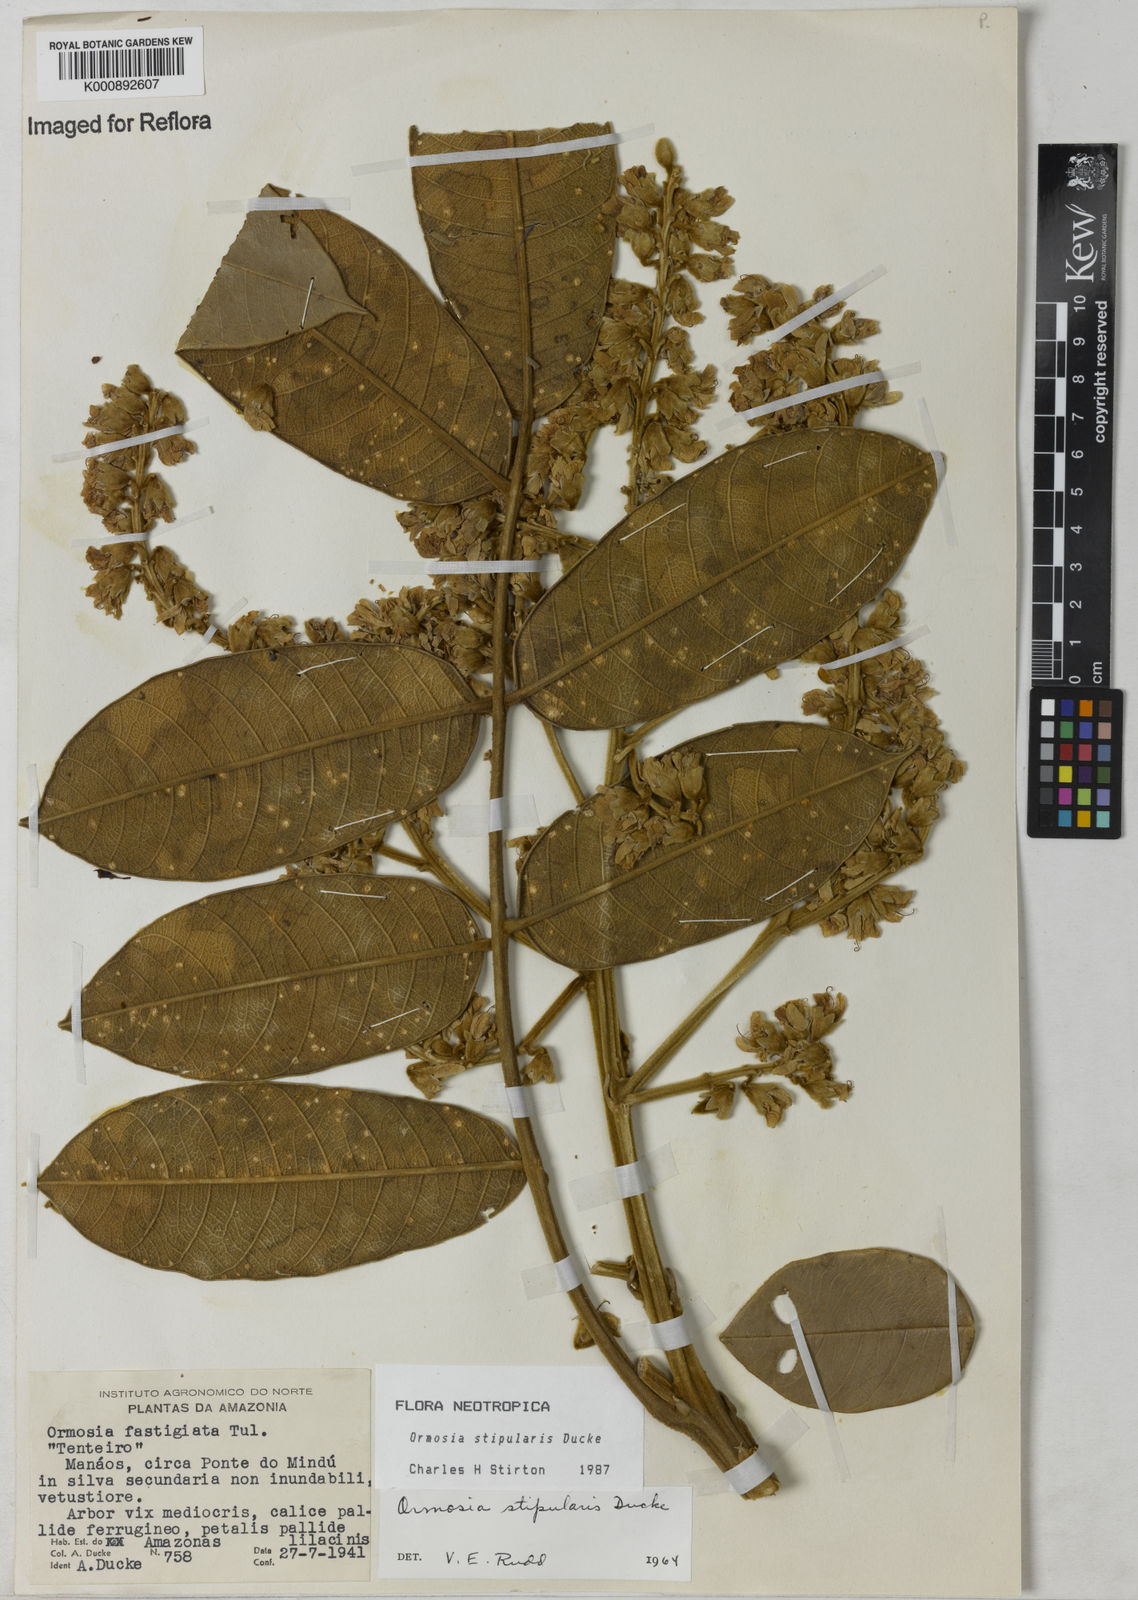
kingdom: Plantae
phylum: Tracheophyta
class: Magnoliopsida
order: Fabales
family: Fabaceae
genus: Ormosia
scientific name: Ormosia stipularis
